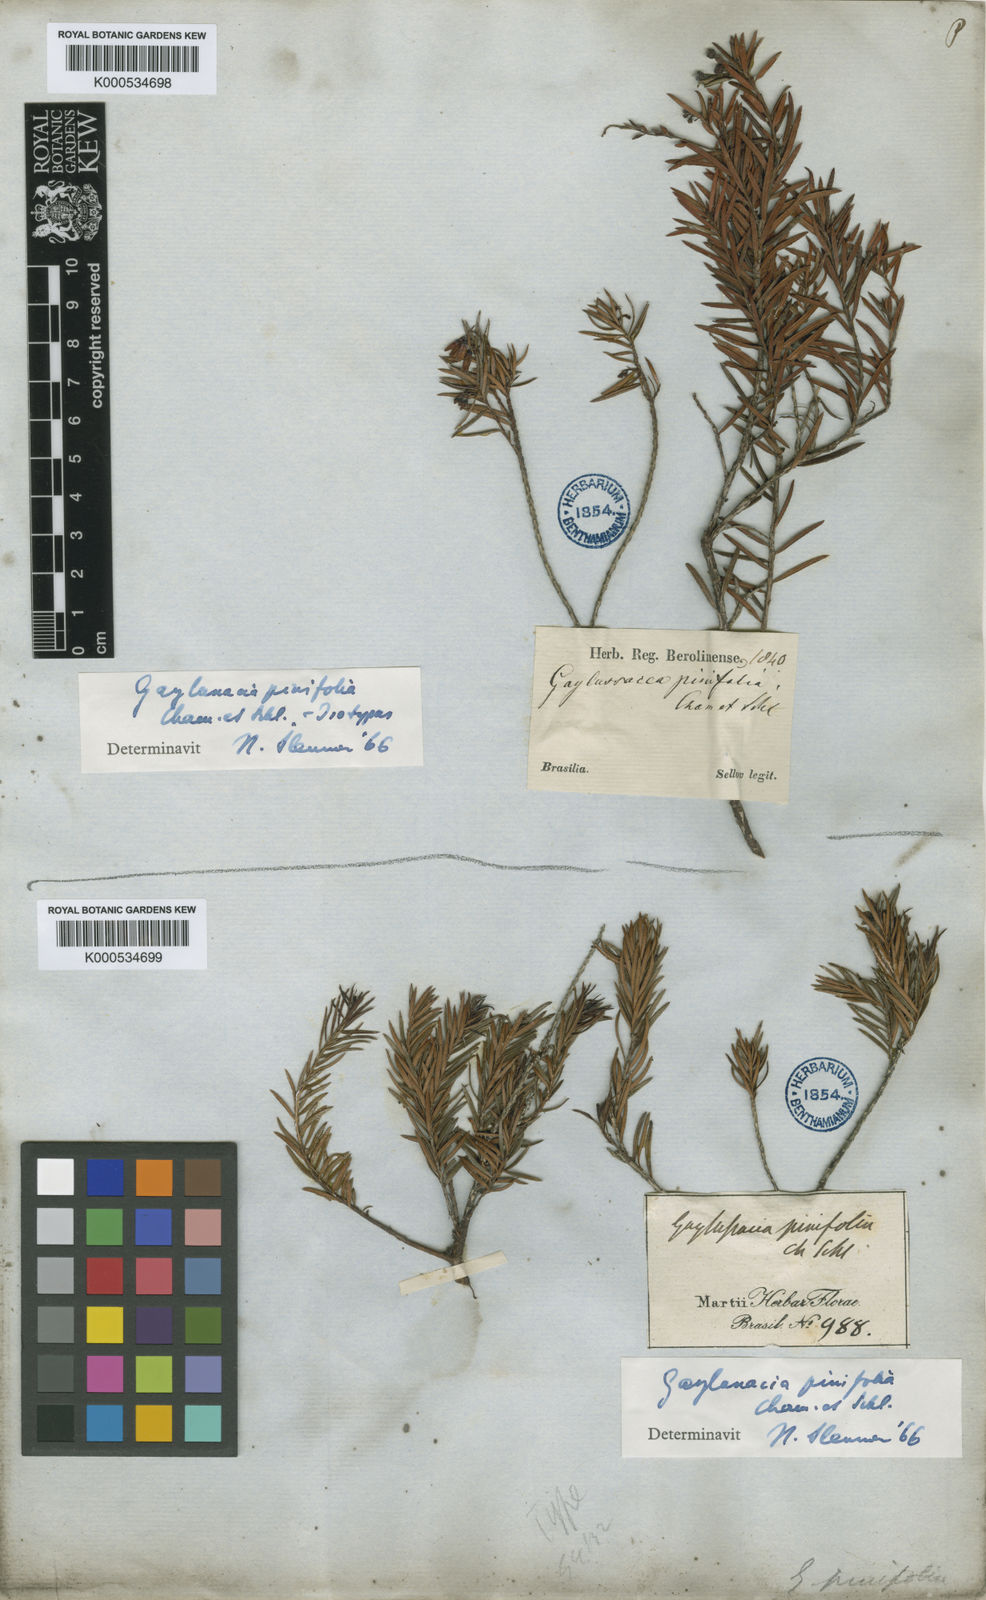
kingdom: Plantae
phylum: Tracheophyta
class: Magnoliopsida
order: Ericales
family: Ericaceae
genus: Gaylussacia
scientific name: Gaylussacia pinifolia
